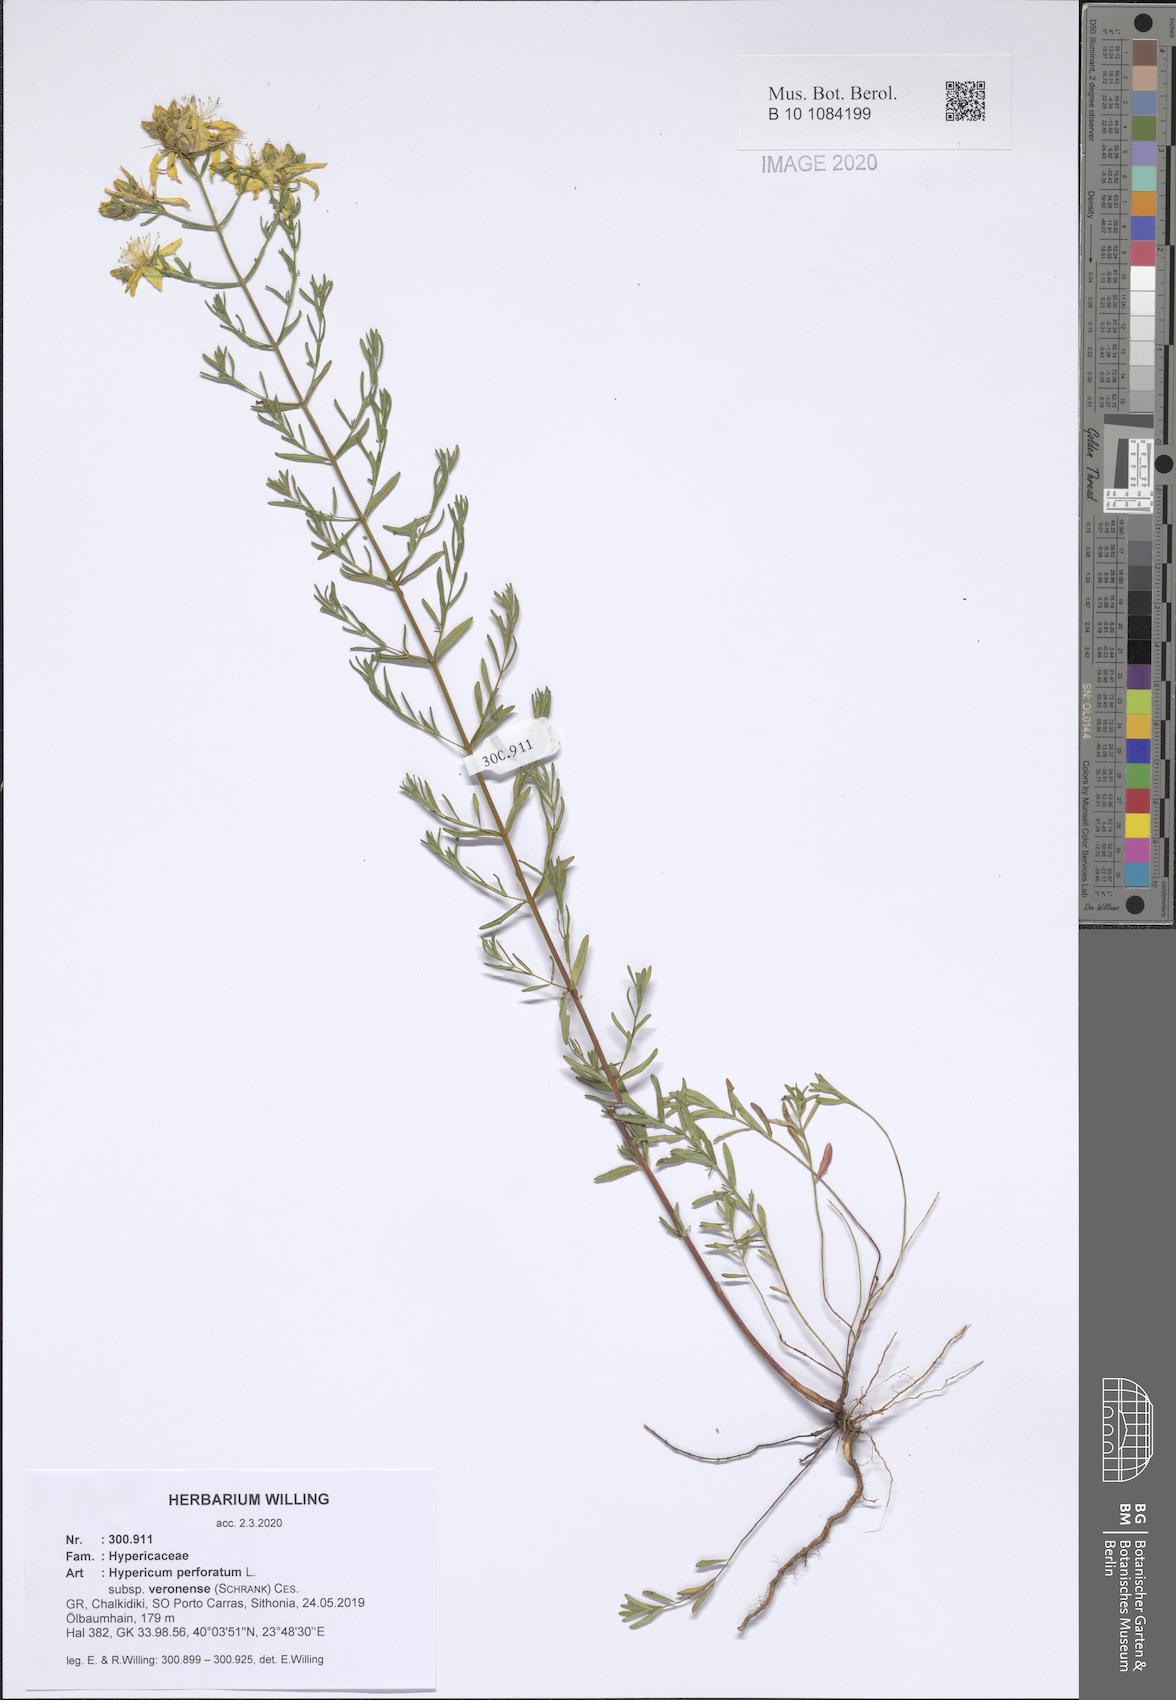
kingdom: Plantae
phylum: Tracheophyta
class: Magnoliopsida
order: Malpighiales
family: Hypericaceae
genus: Hypericum
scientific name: Hypericum veronense
